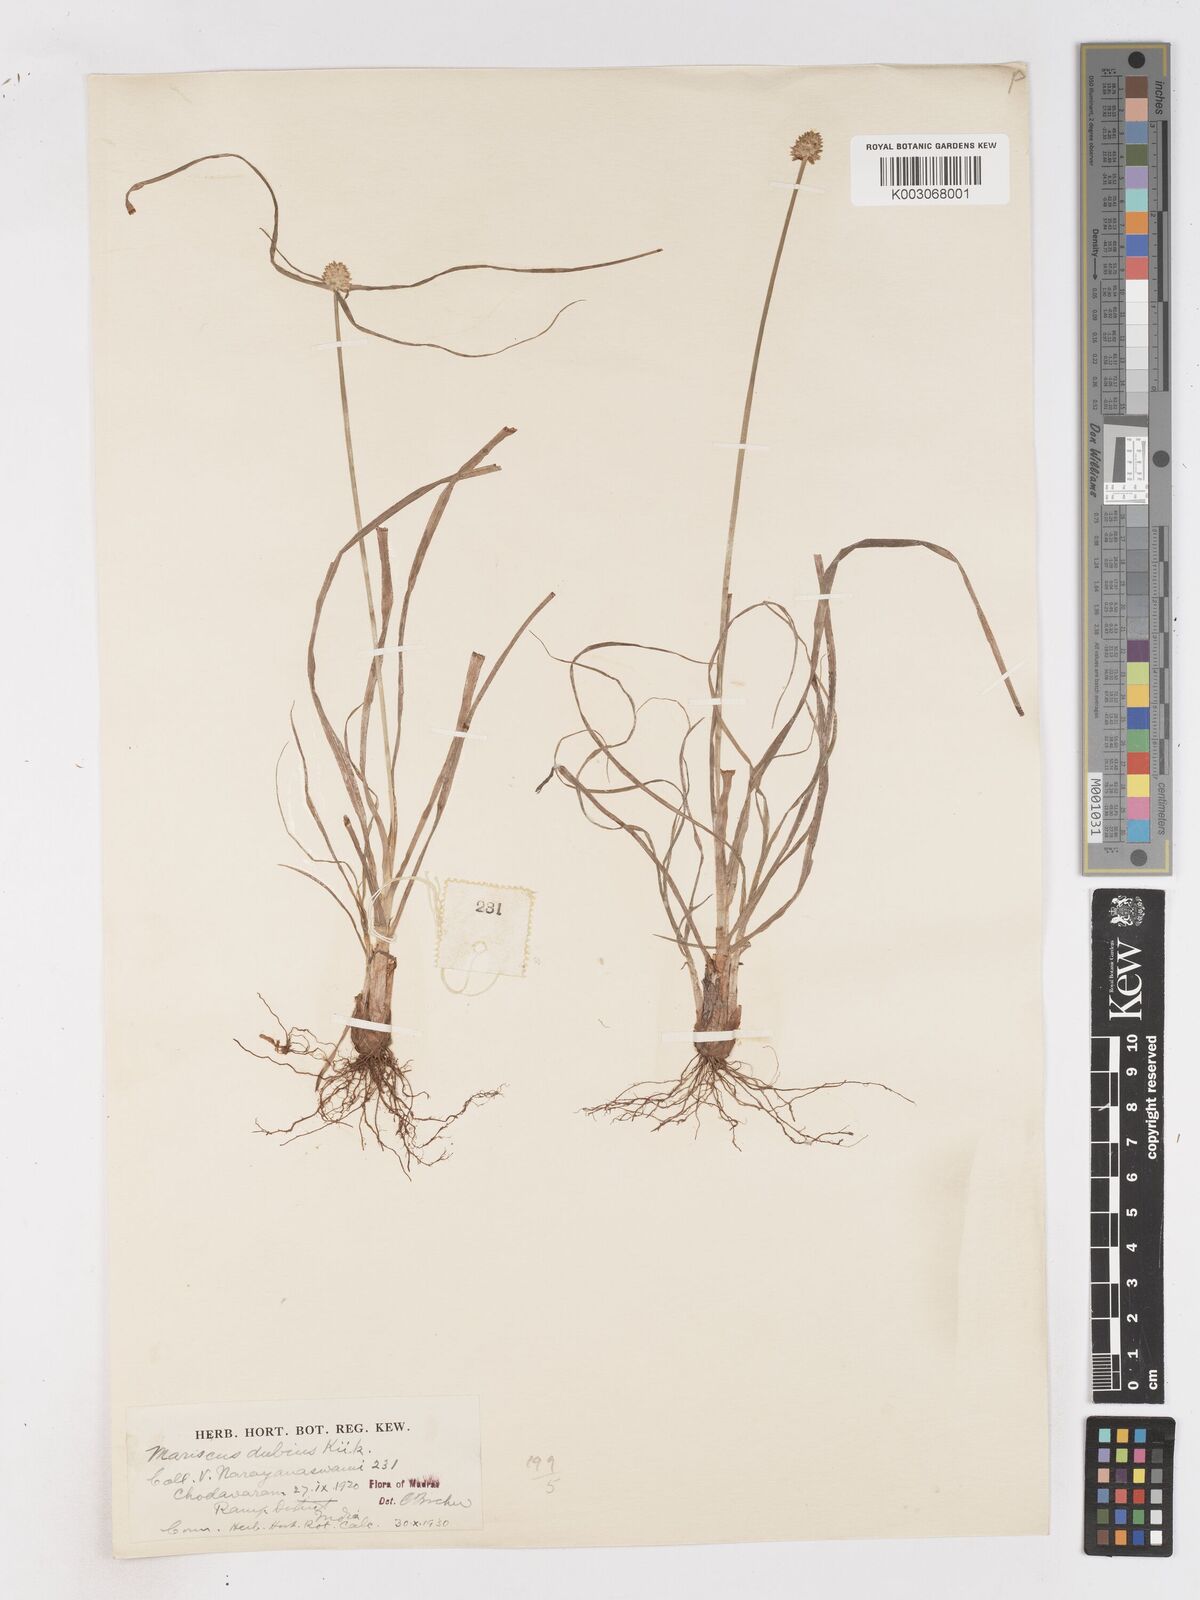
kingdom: Plantae
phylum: Tracheophyta
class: Liliopsida
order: Poales
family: Cyperaceae
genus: Cyperus
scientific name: Cyperus dubius
